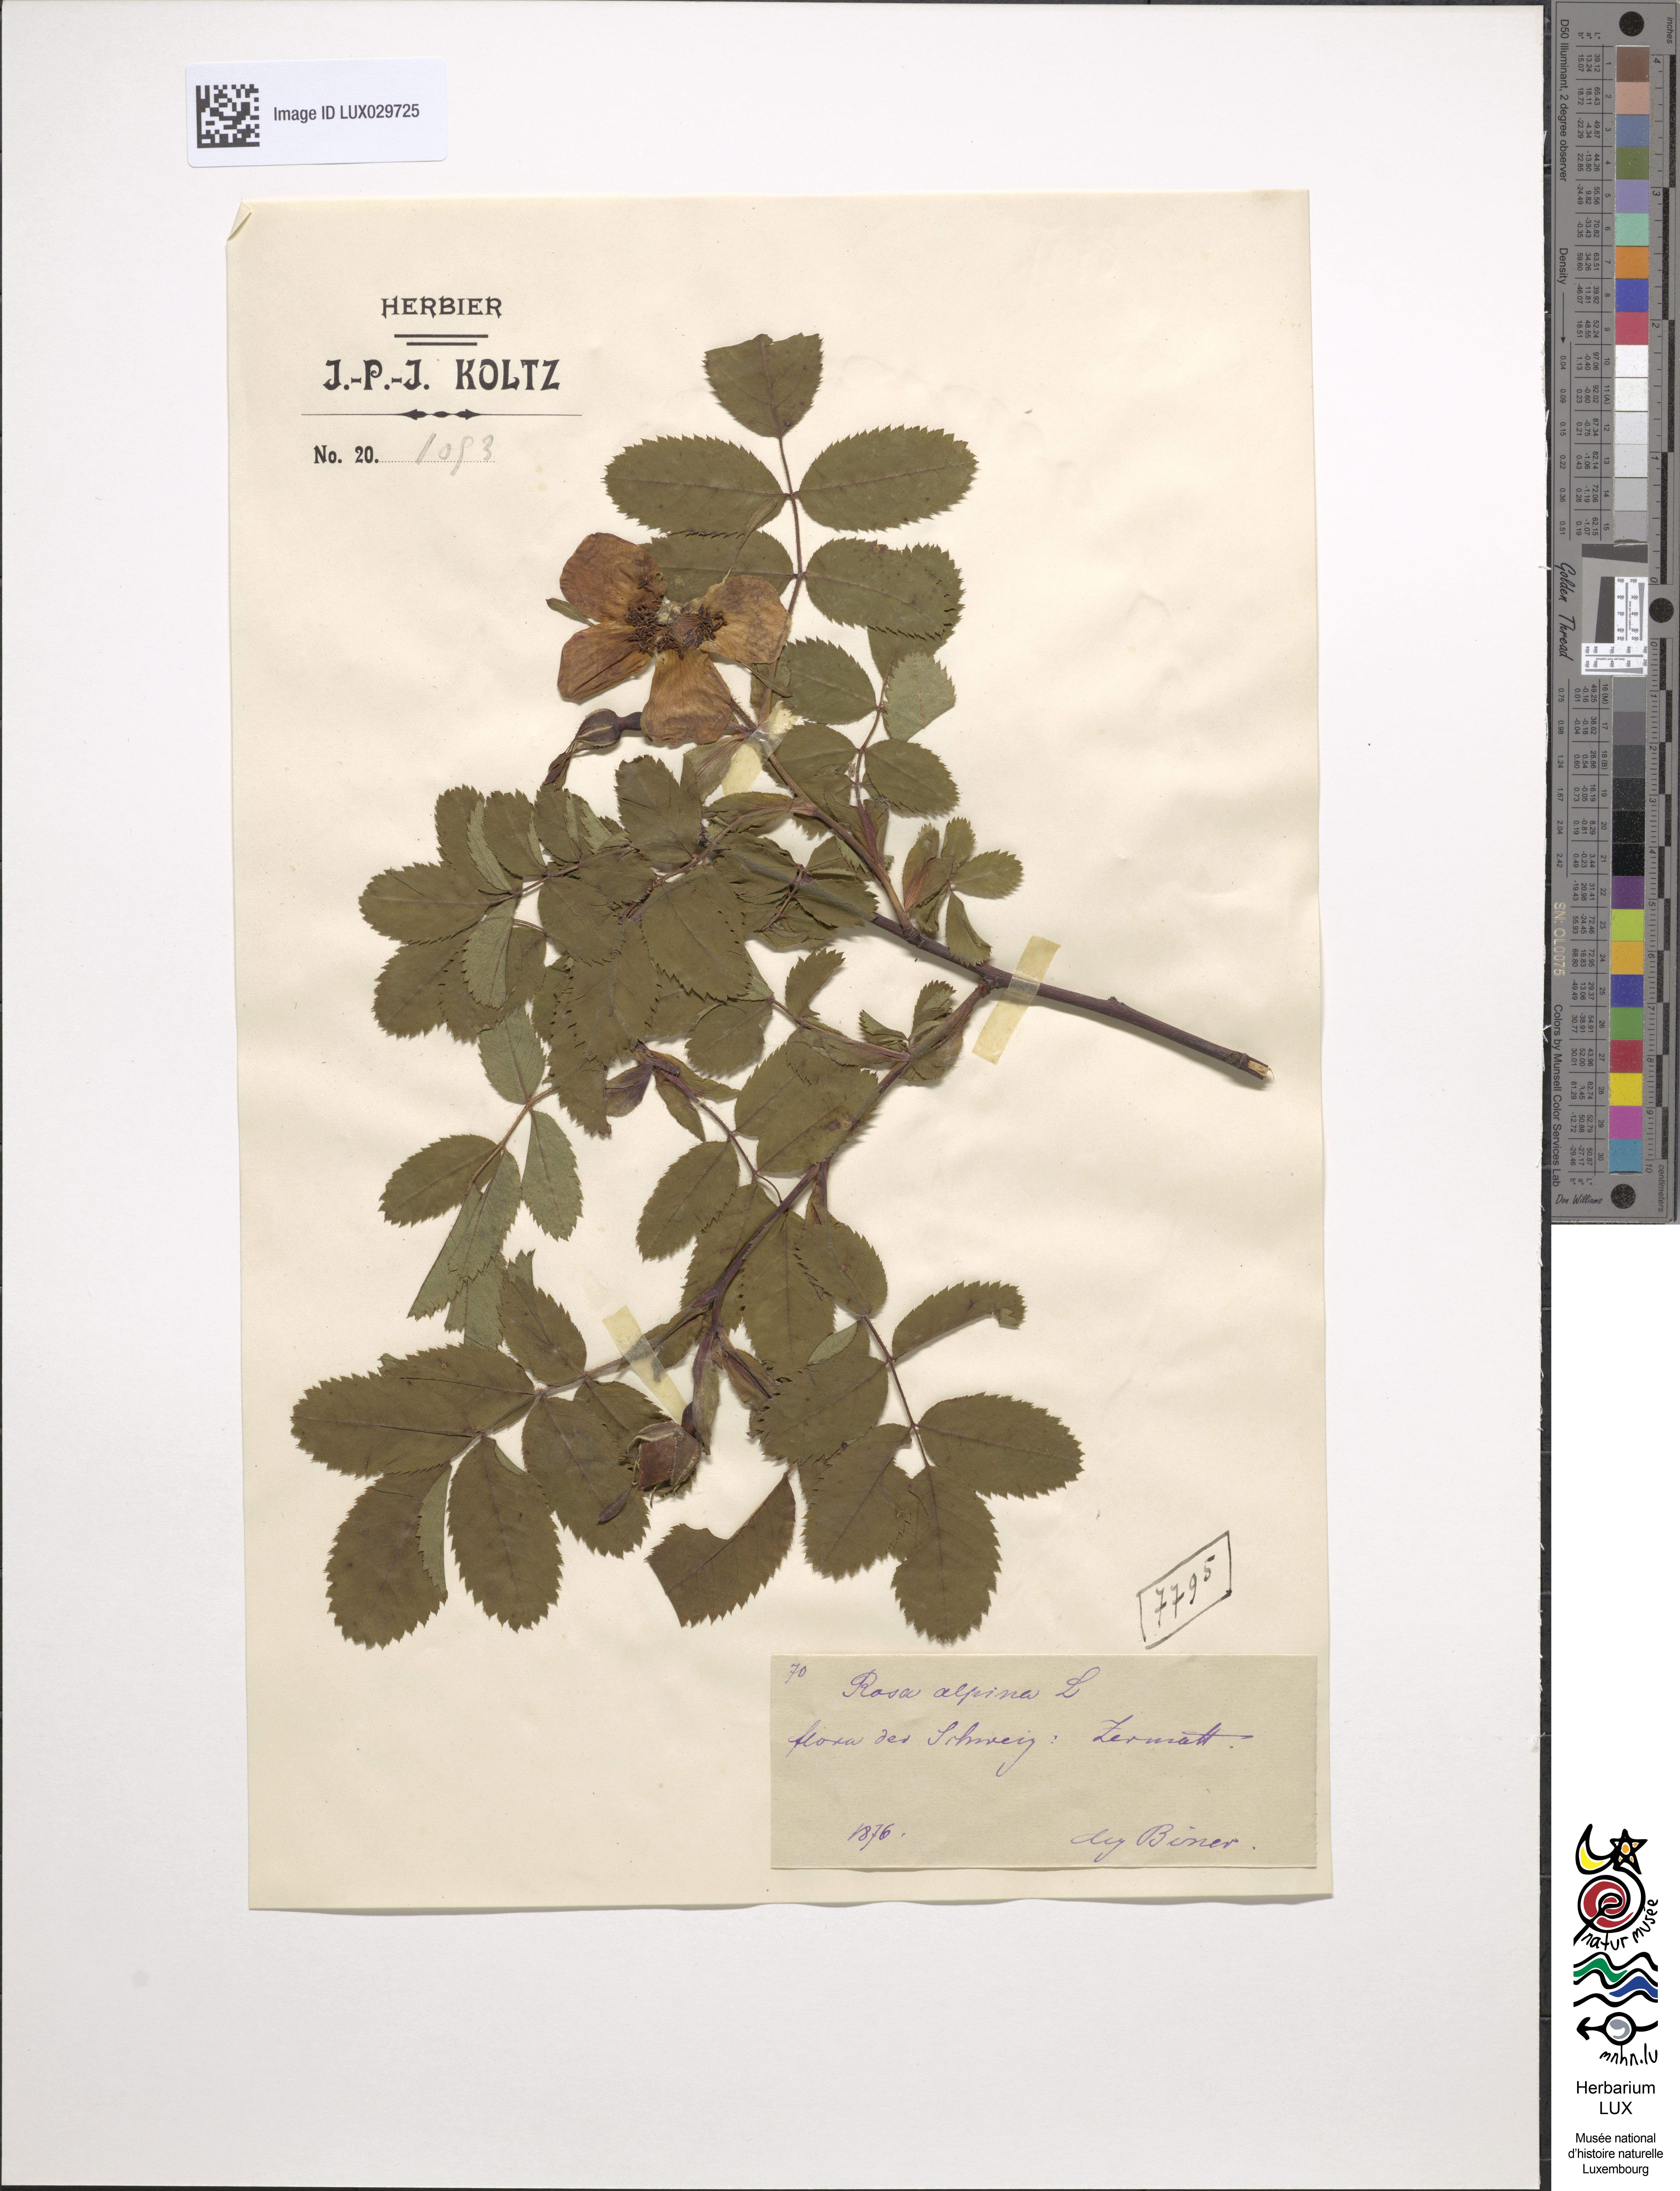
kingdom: Plantae
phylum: Tracheophyta
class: Magnoliopsida
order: Rosales
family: Rosaceae
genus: Rosa
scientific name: Rosa pendulina
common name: Alpine rose
